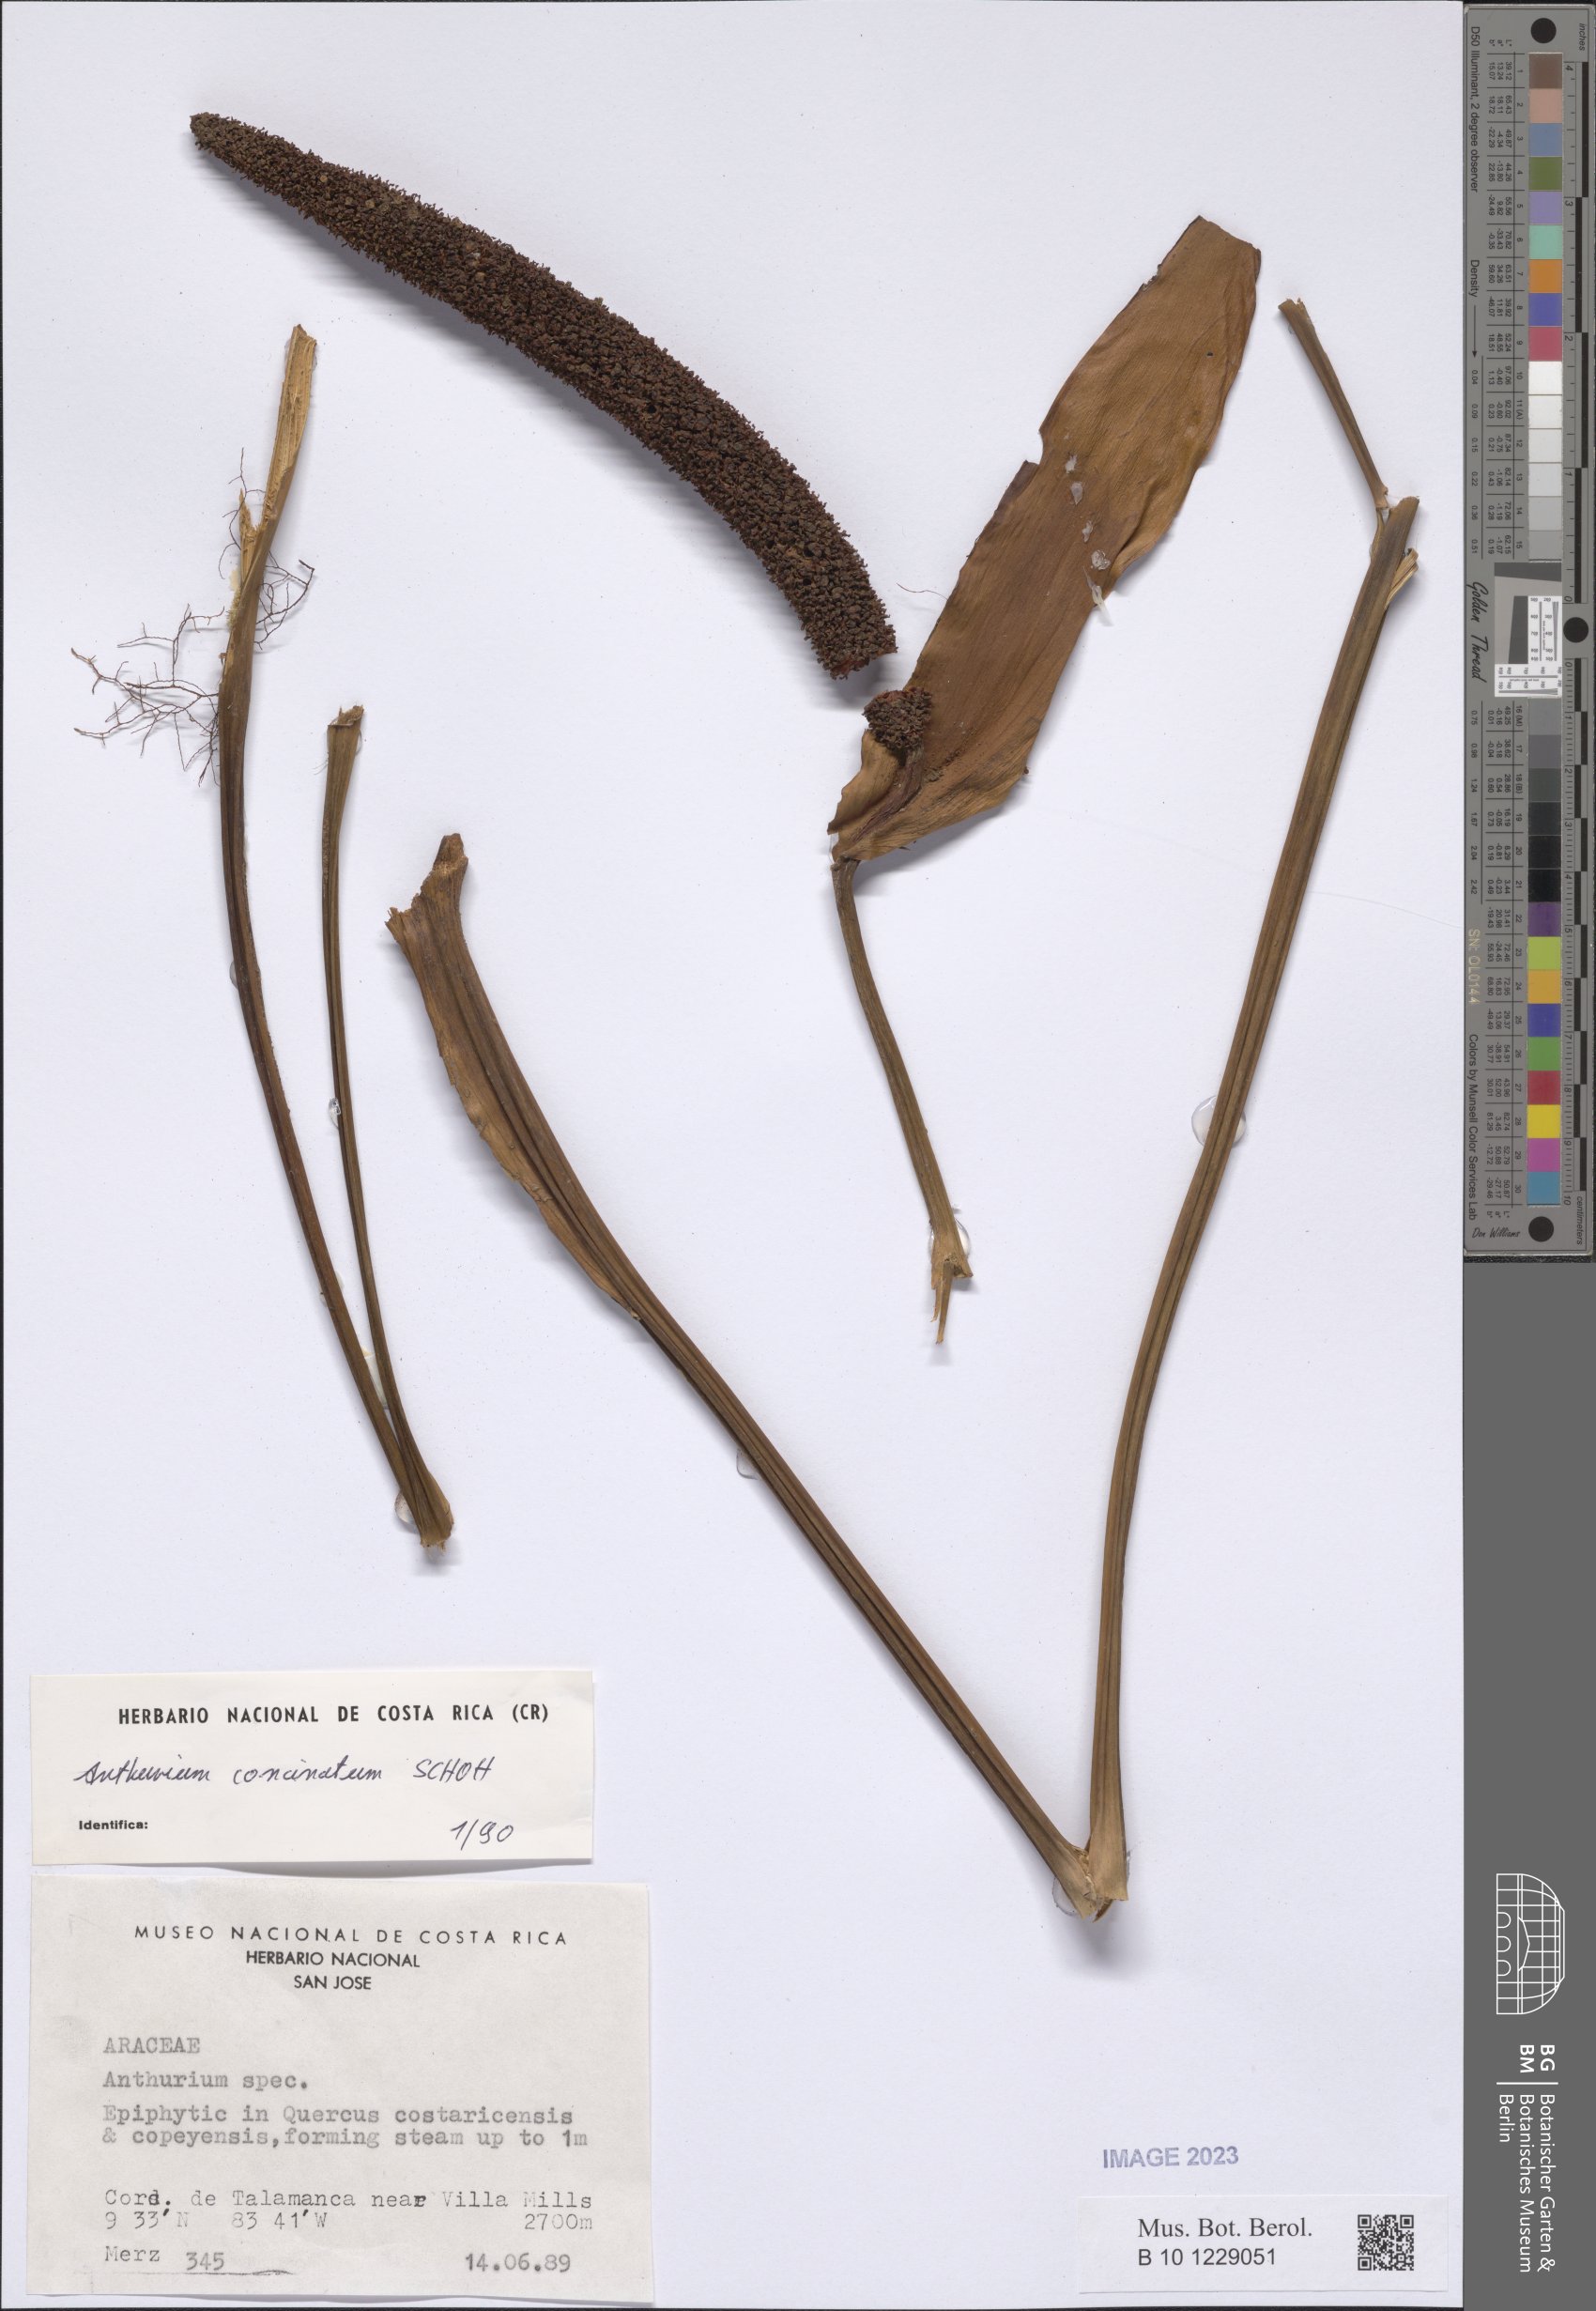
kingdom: Plantae
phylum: Tracheophyta
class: Liliopsida
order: Alismatales
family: Araceae
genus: Anthurium
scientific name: Anthurium concinnatum
